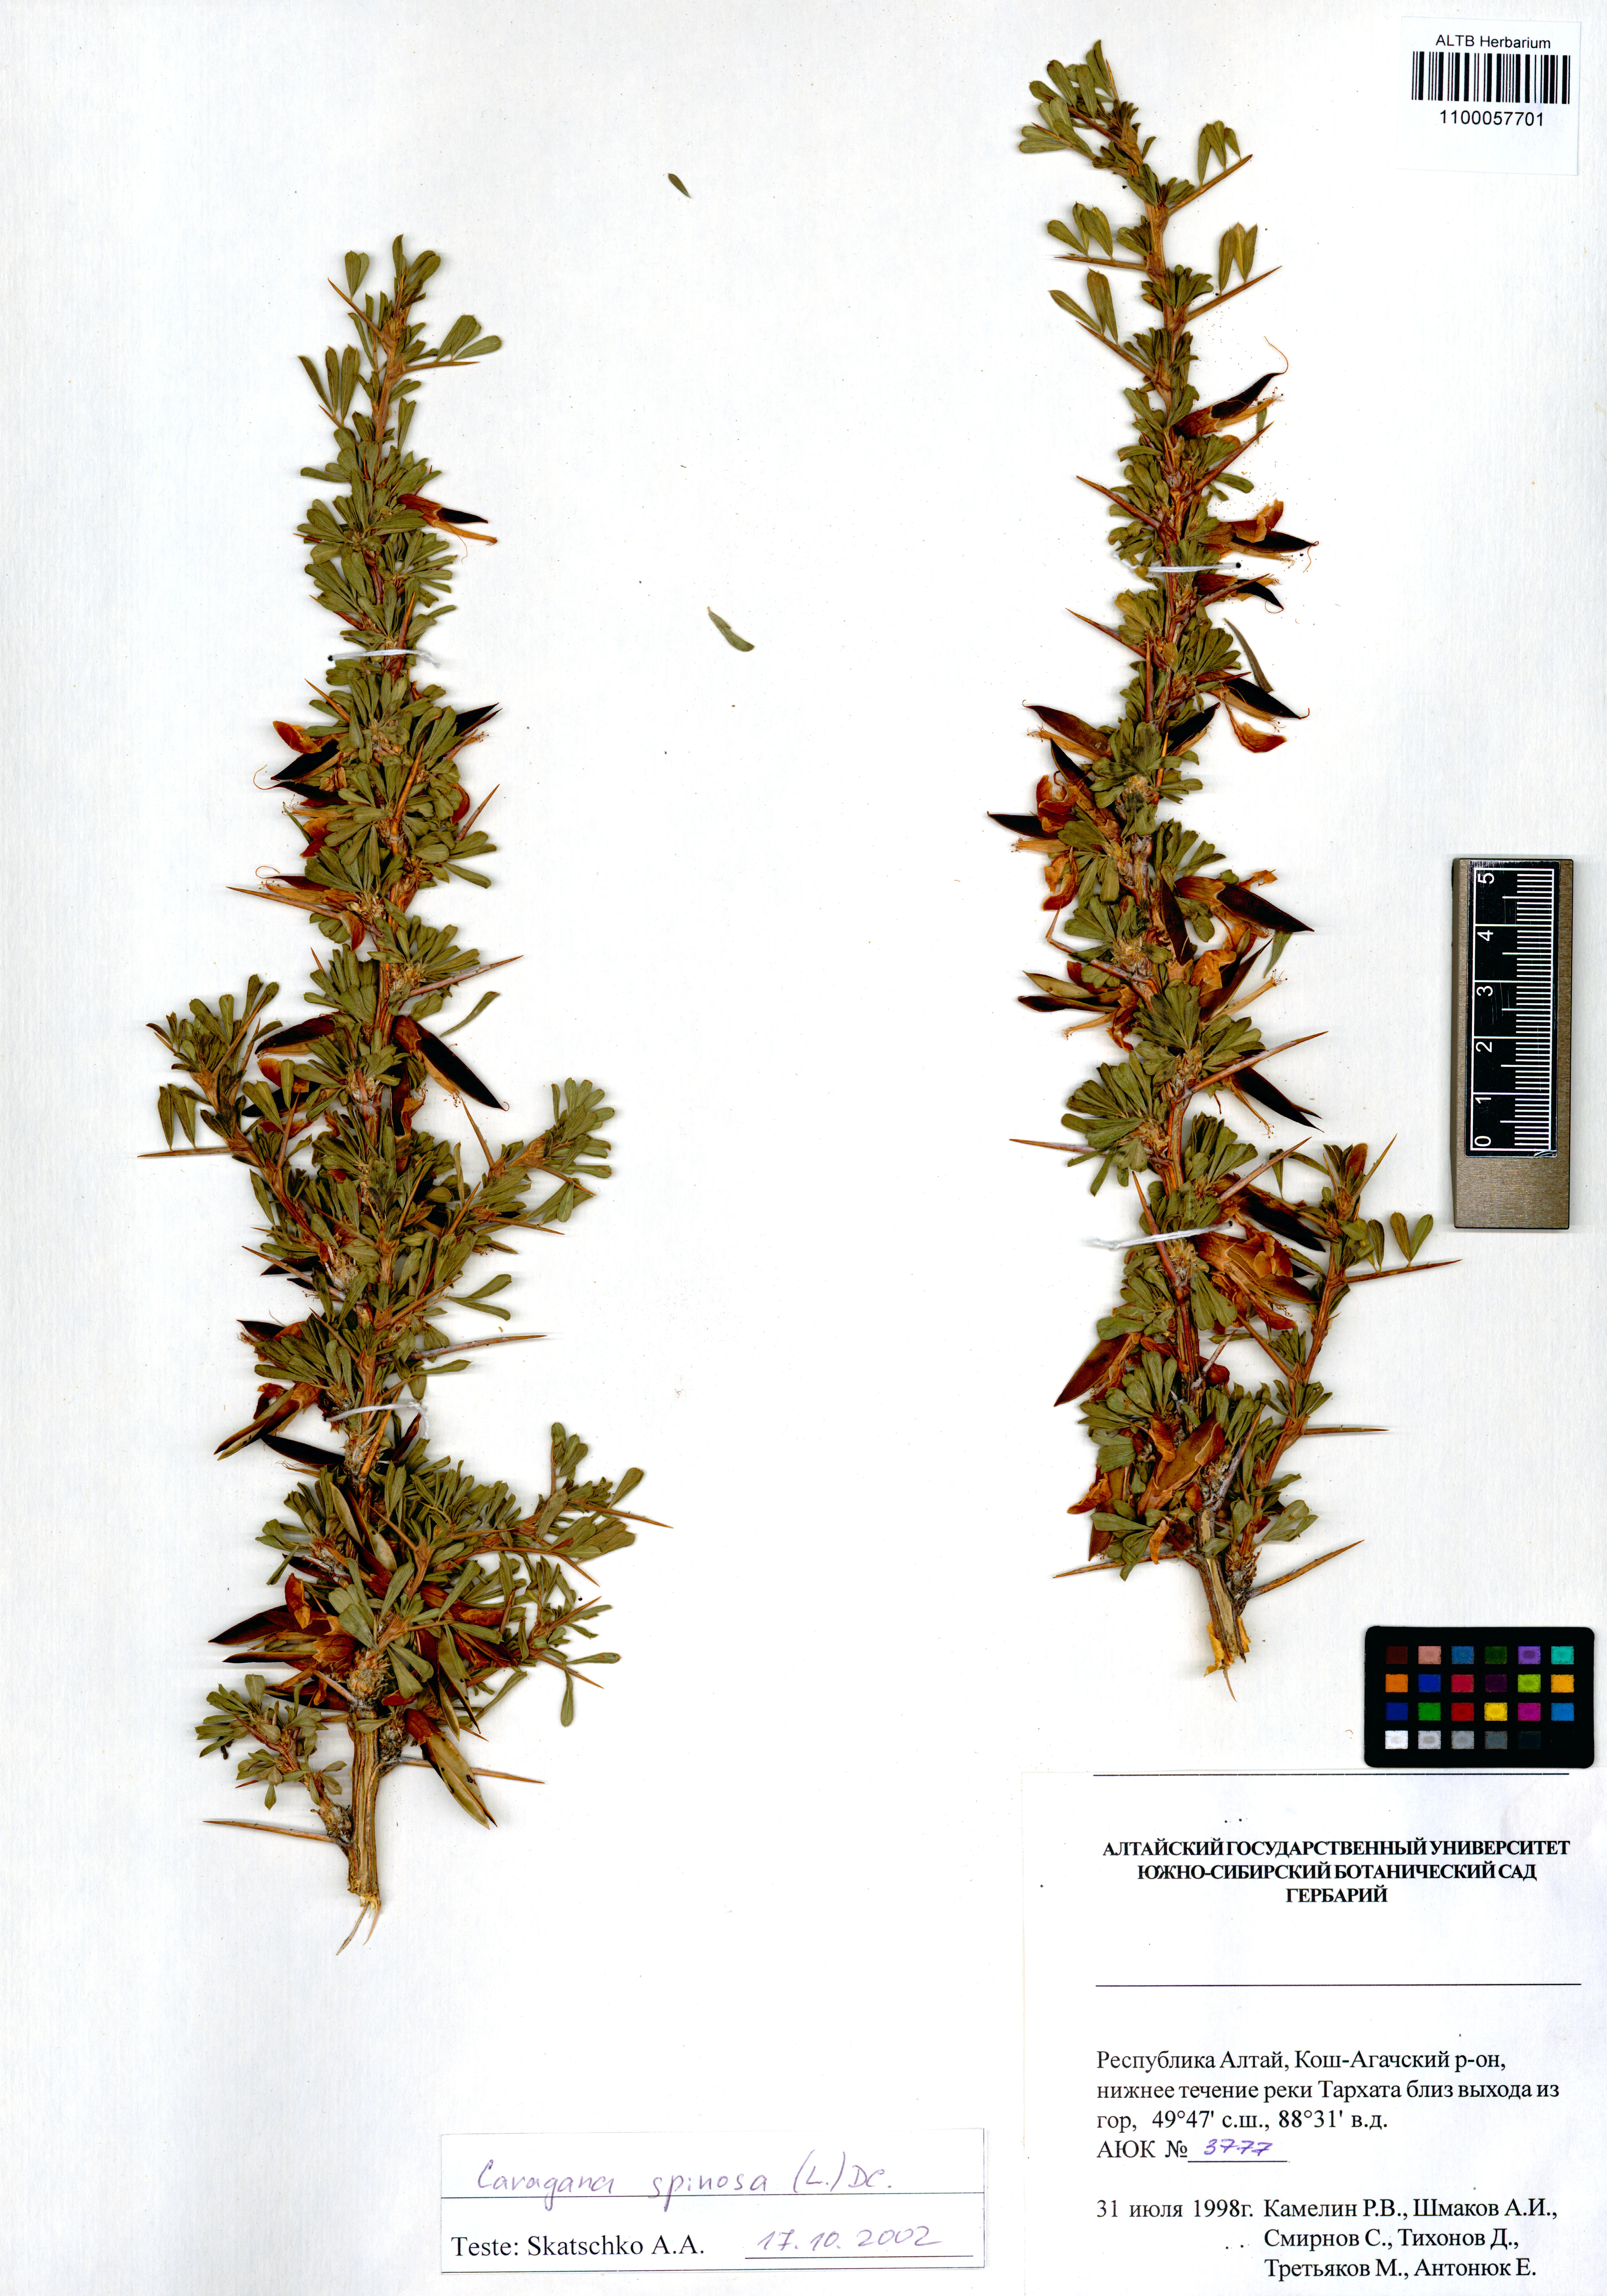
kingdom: Plantae
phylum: Tracheophyta
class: Magnoliopsida
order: Fabales
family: Fabaceae
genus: Caragana
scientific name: Caragana spinosa
